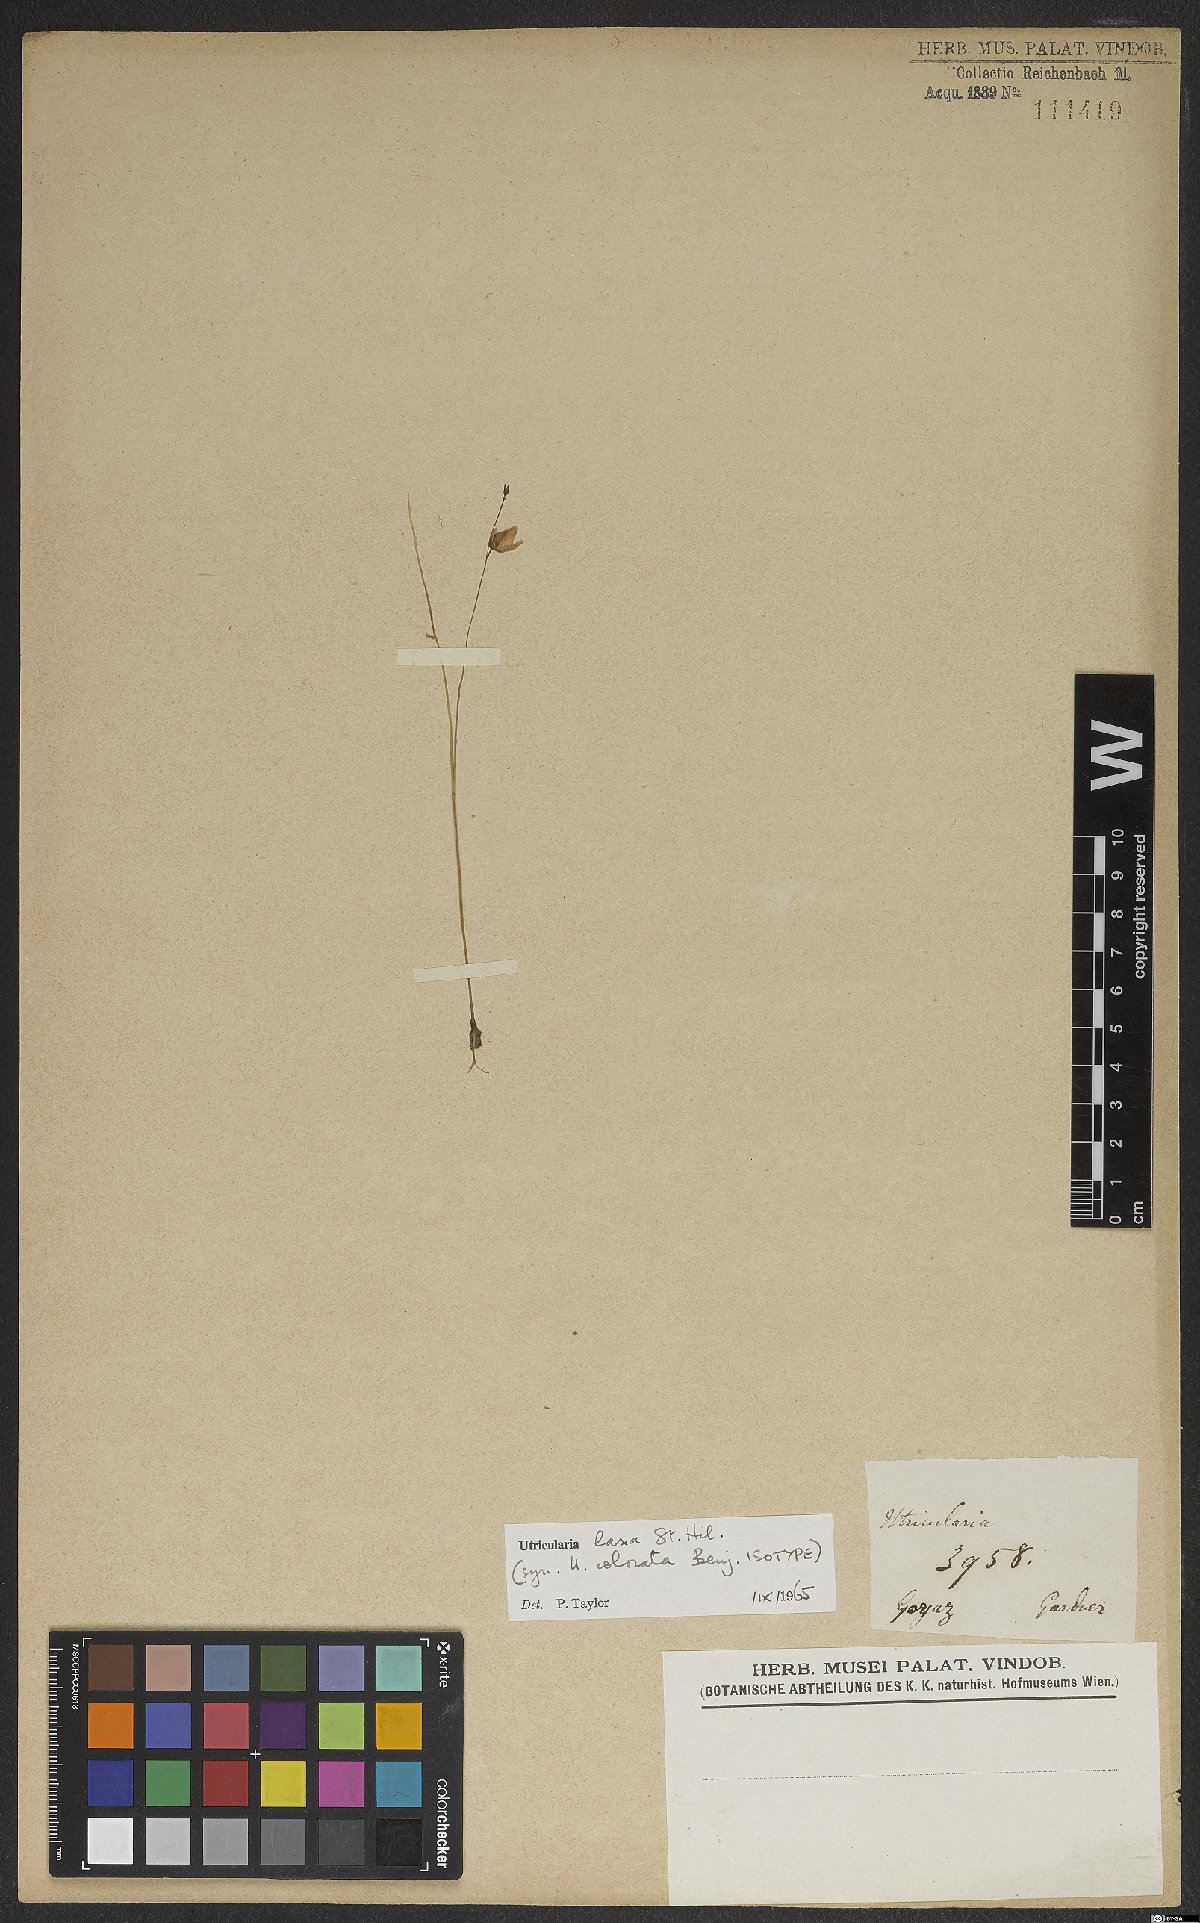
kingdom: Plantae
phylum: Tracheophyta
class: Magnoliopsida
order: Lamiales
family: Lentibulariaceae
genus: Utricularia
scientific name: Utricularia laxa
